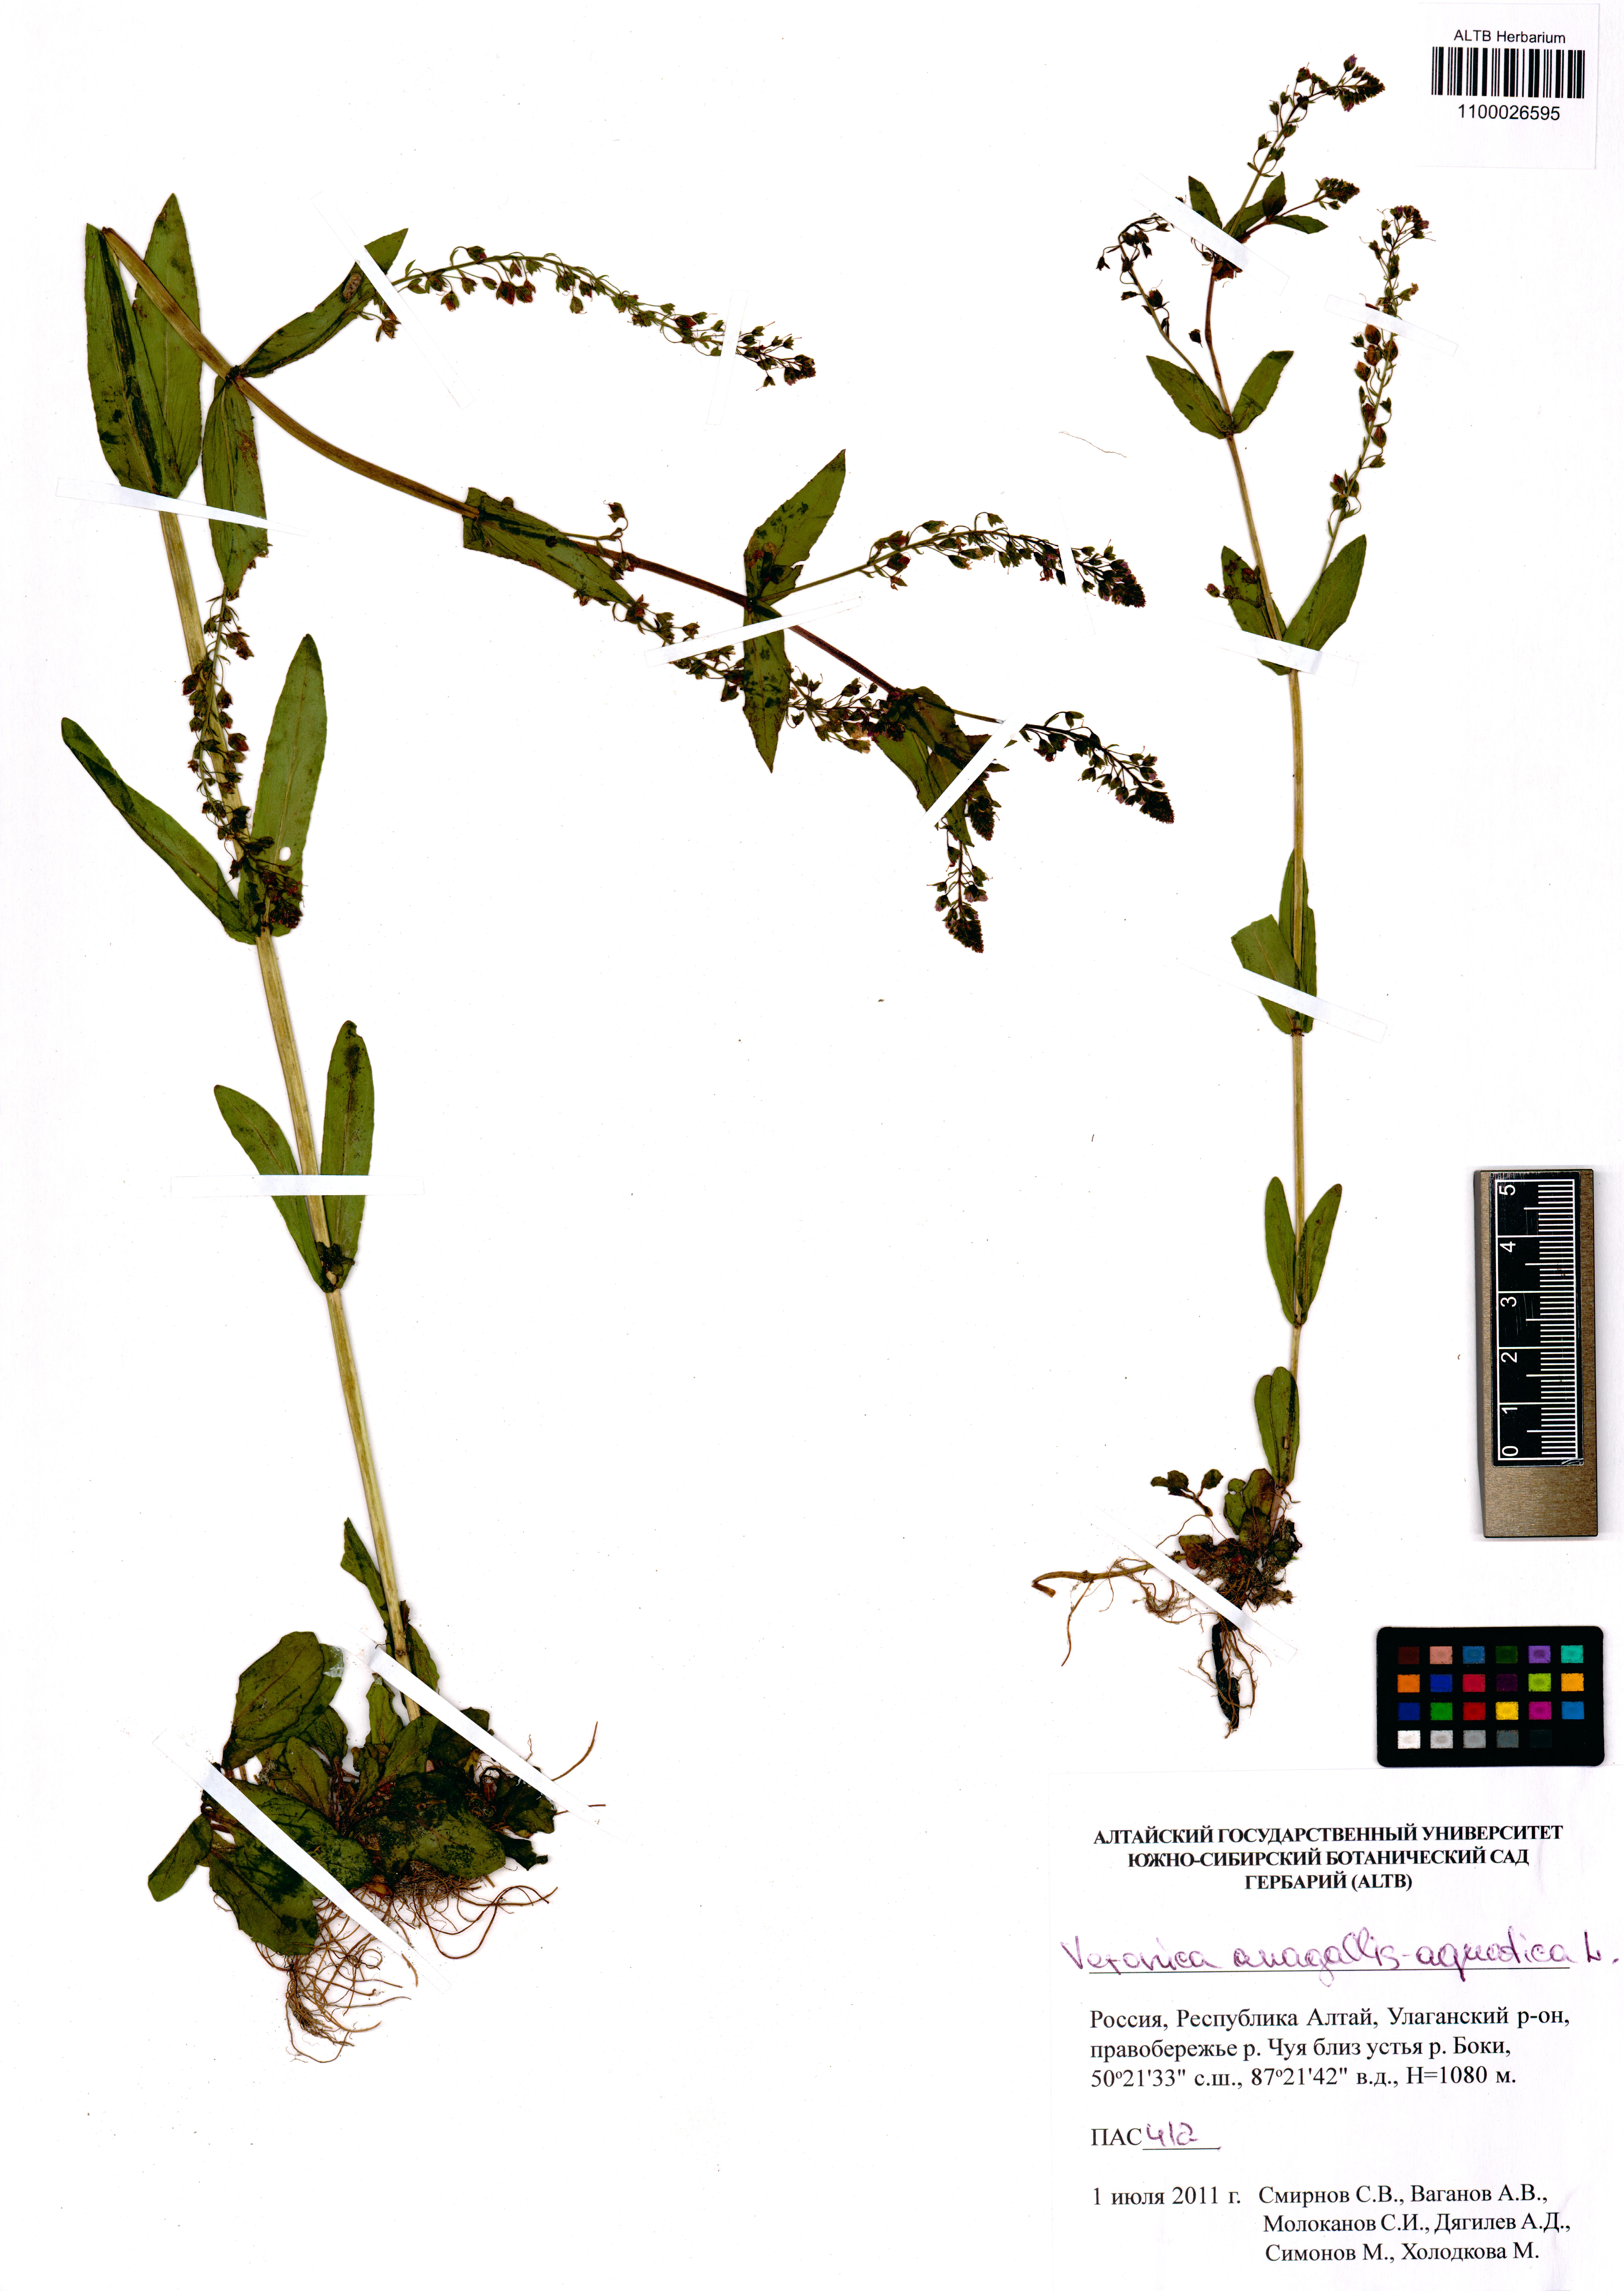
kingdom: Plantae
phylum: Tracheophyta
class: Magnoliopsida
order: Lamiales
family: Plantaginaceae
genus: Veronica
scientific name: Veronica anagallis-aquatica
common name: Water speedwell
